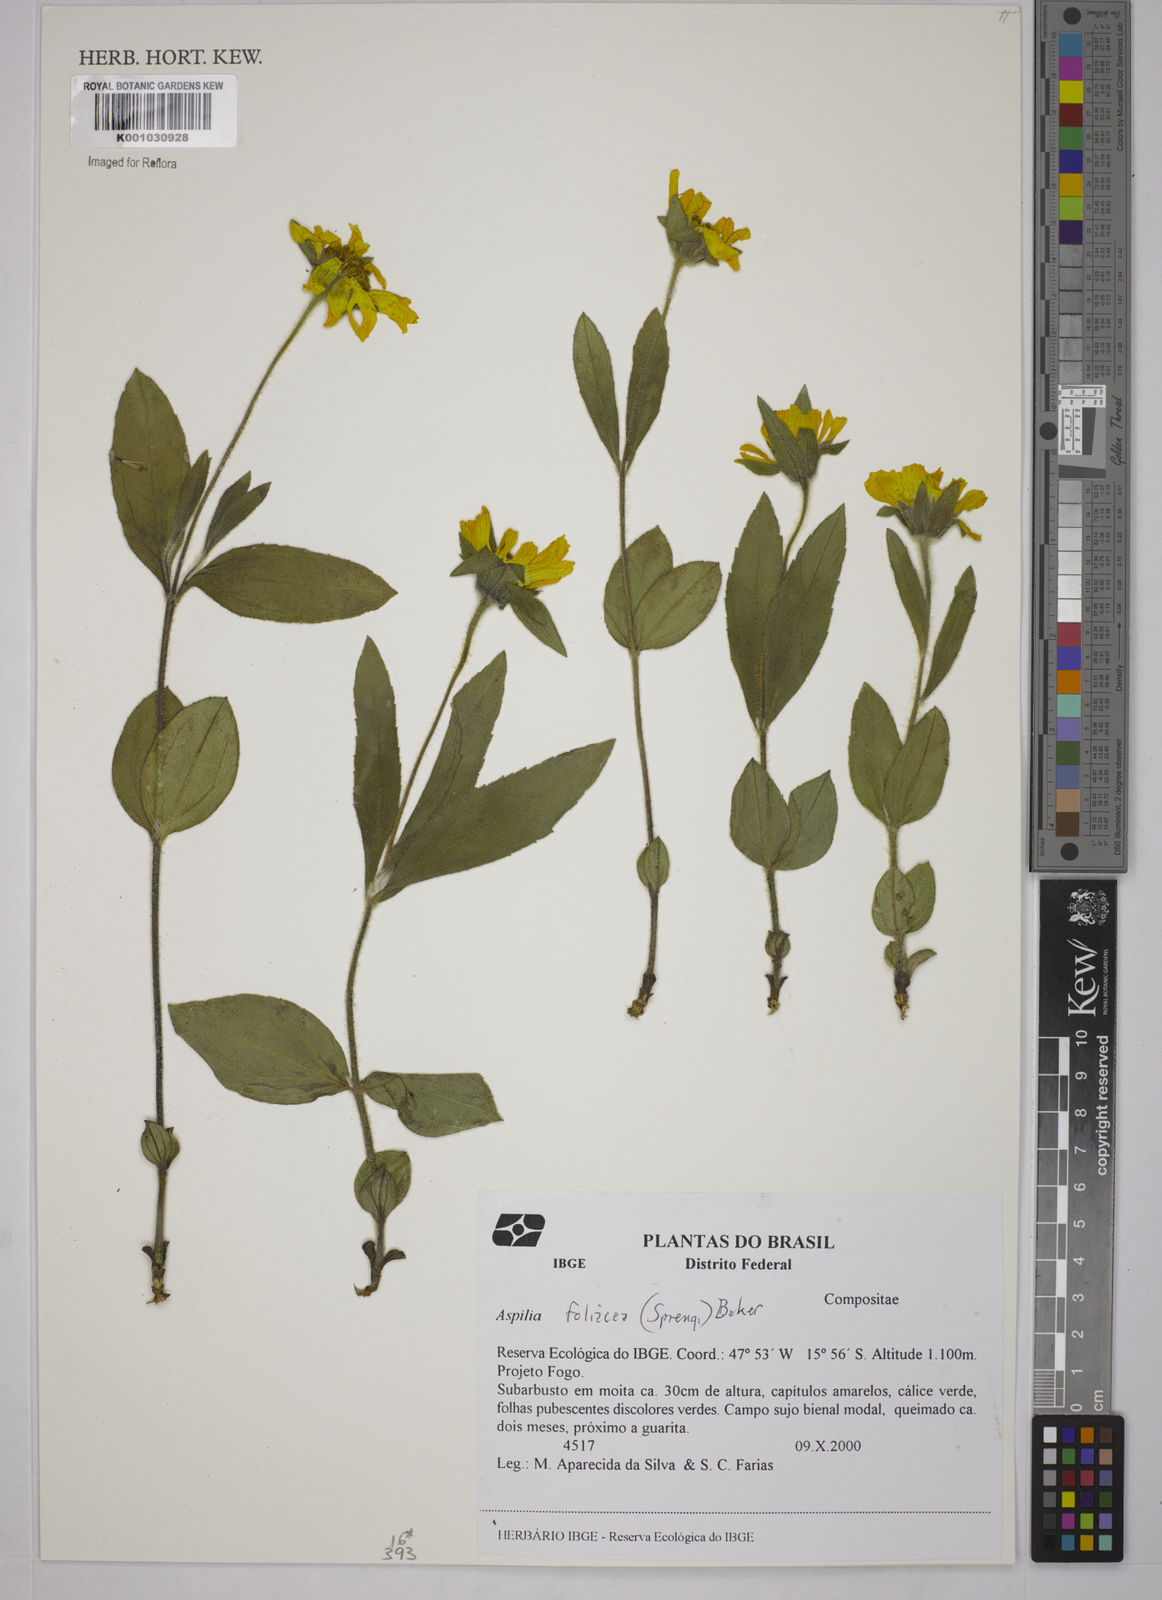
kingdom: Plantae
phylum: Tracheophyta
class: Magnoliopsida
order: Asterales
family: Asteraceae
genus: Wedelia
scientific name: Wedelia foliacea
